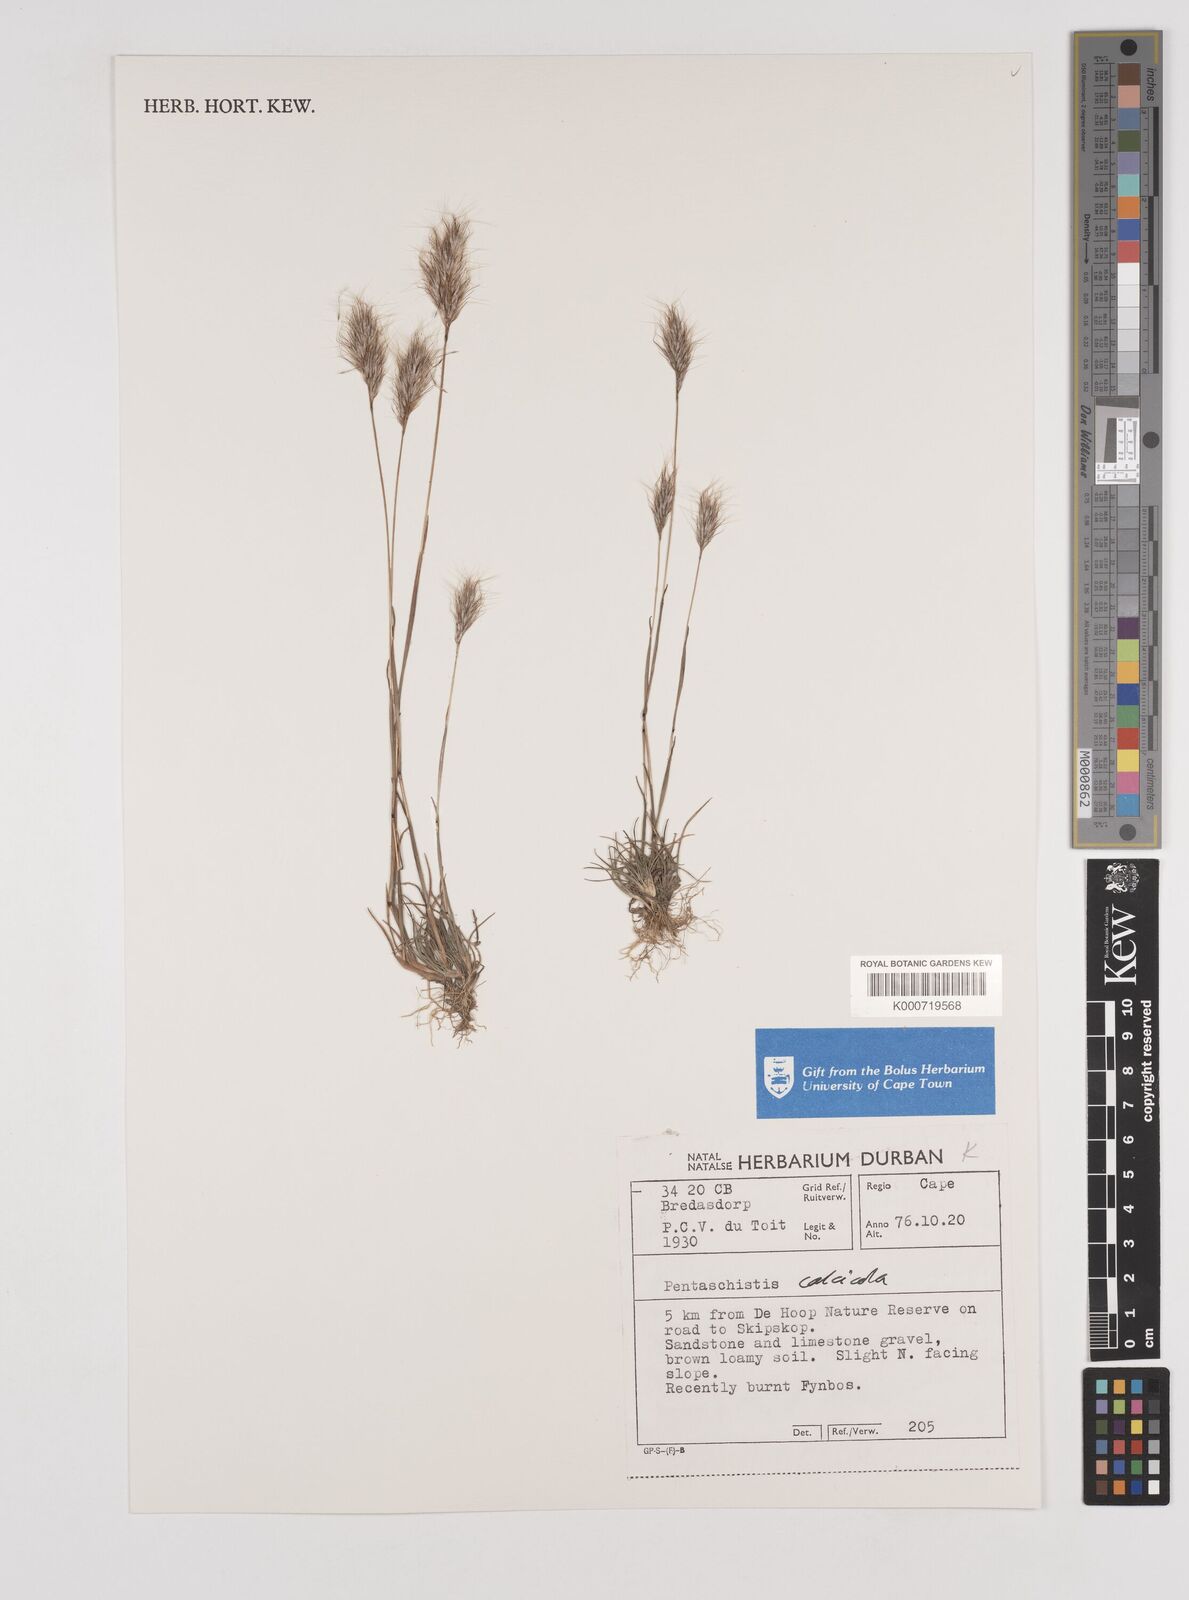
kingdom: Plantae
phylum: Tracheophyta
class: Liliopsida
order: Poales
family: Poaceae
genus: Pentameris
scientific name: Pentameris calcicola
